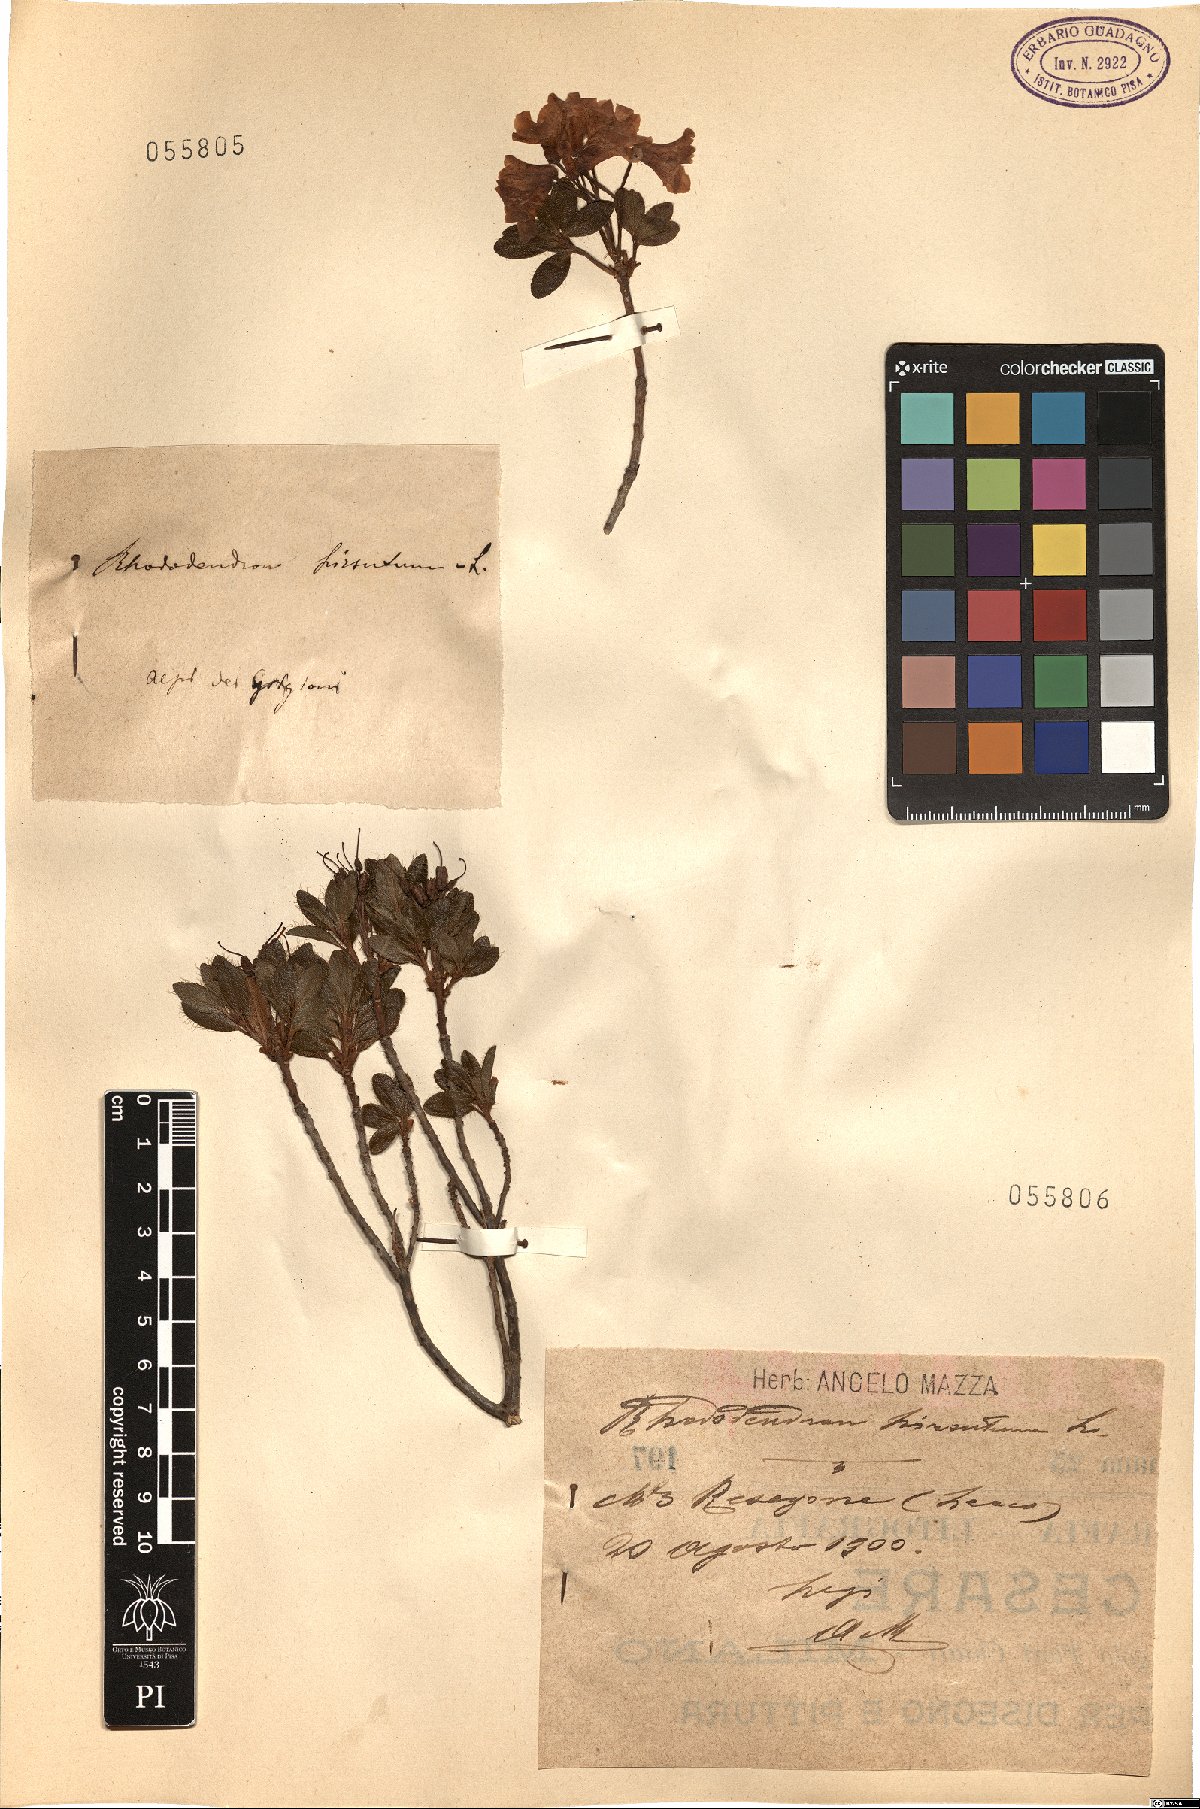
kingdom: Plantae
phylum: Tracheophyta
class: Magnoliopsida
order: Ericales
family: Ericaceae
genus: Rhododendron
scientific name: Rhododendron hirsutum
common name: Hairy alpenrose
